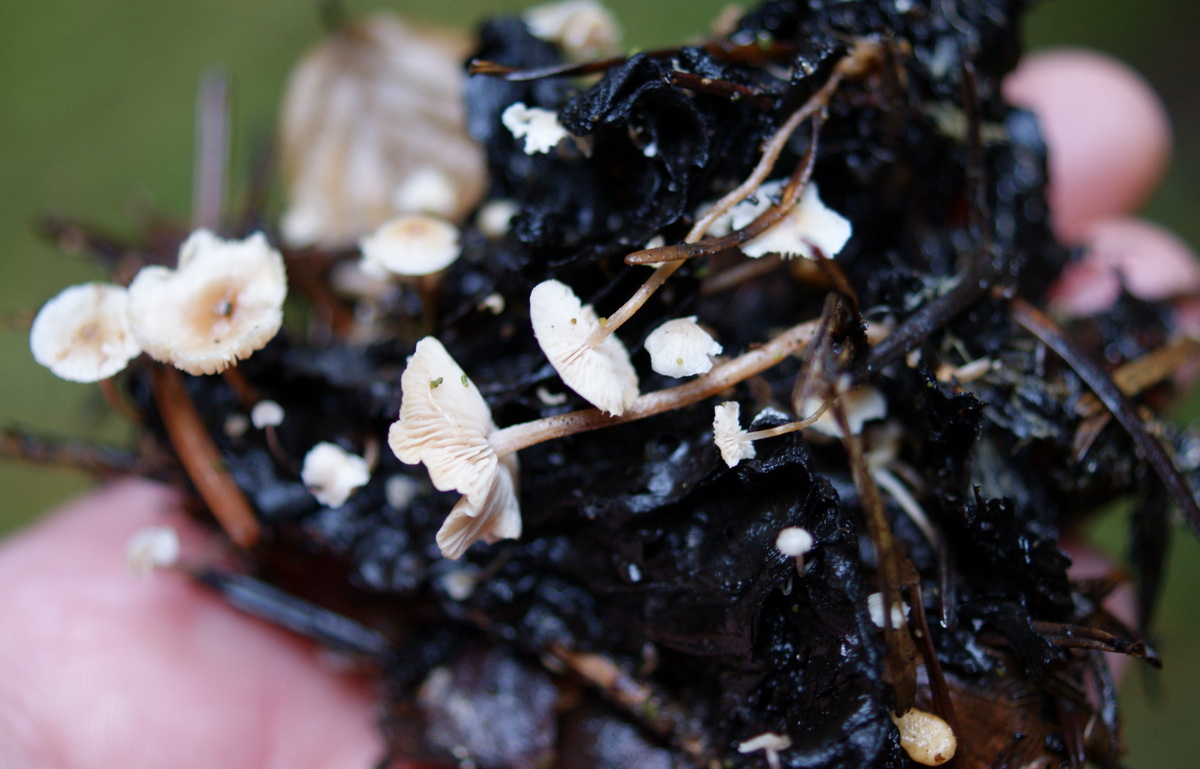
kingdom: Fungi
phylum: Basidiomycota
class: Agaricomycetes
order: Agaricales
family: Tricholomataceae
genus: Collybia
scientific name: Collybia cookei
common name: gulknoldet lighat
